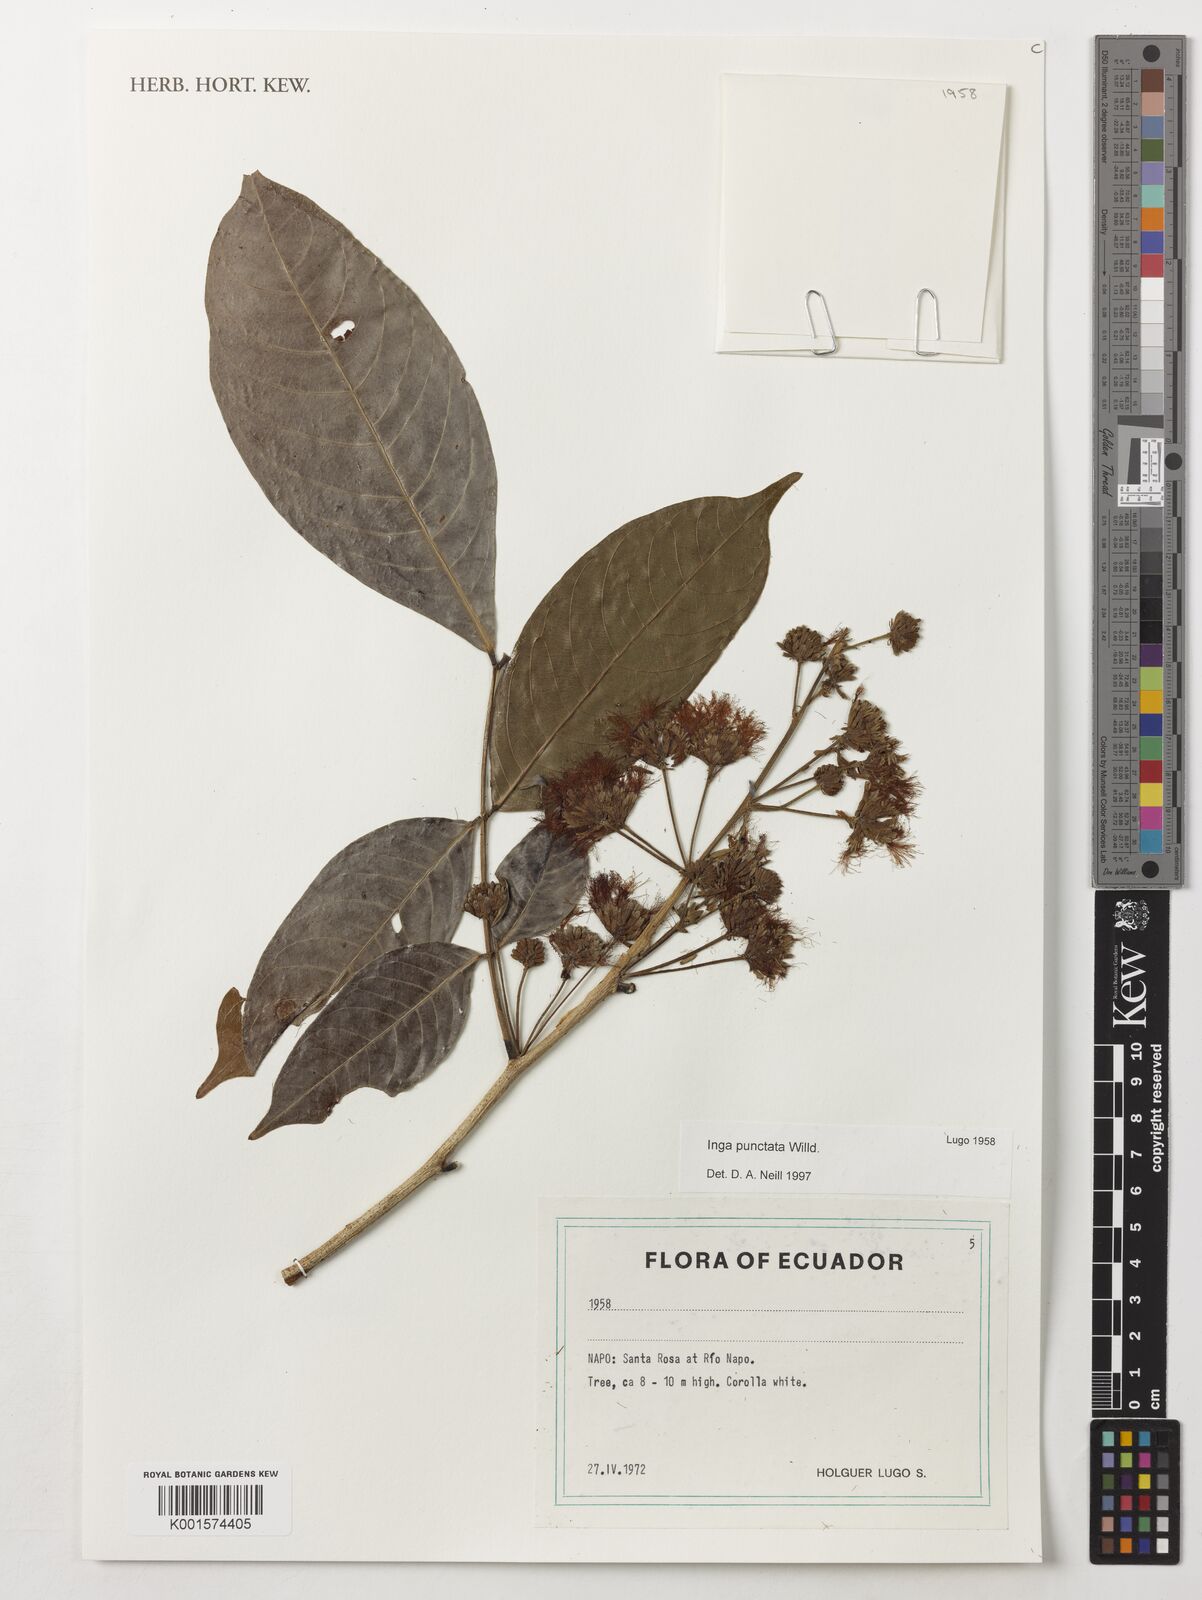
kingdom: Plantae
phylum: Tracheophyta
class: Magnoliopsida
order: Fabales
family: Fabaceae
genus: Inga
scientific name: Inga punctata
